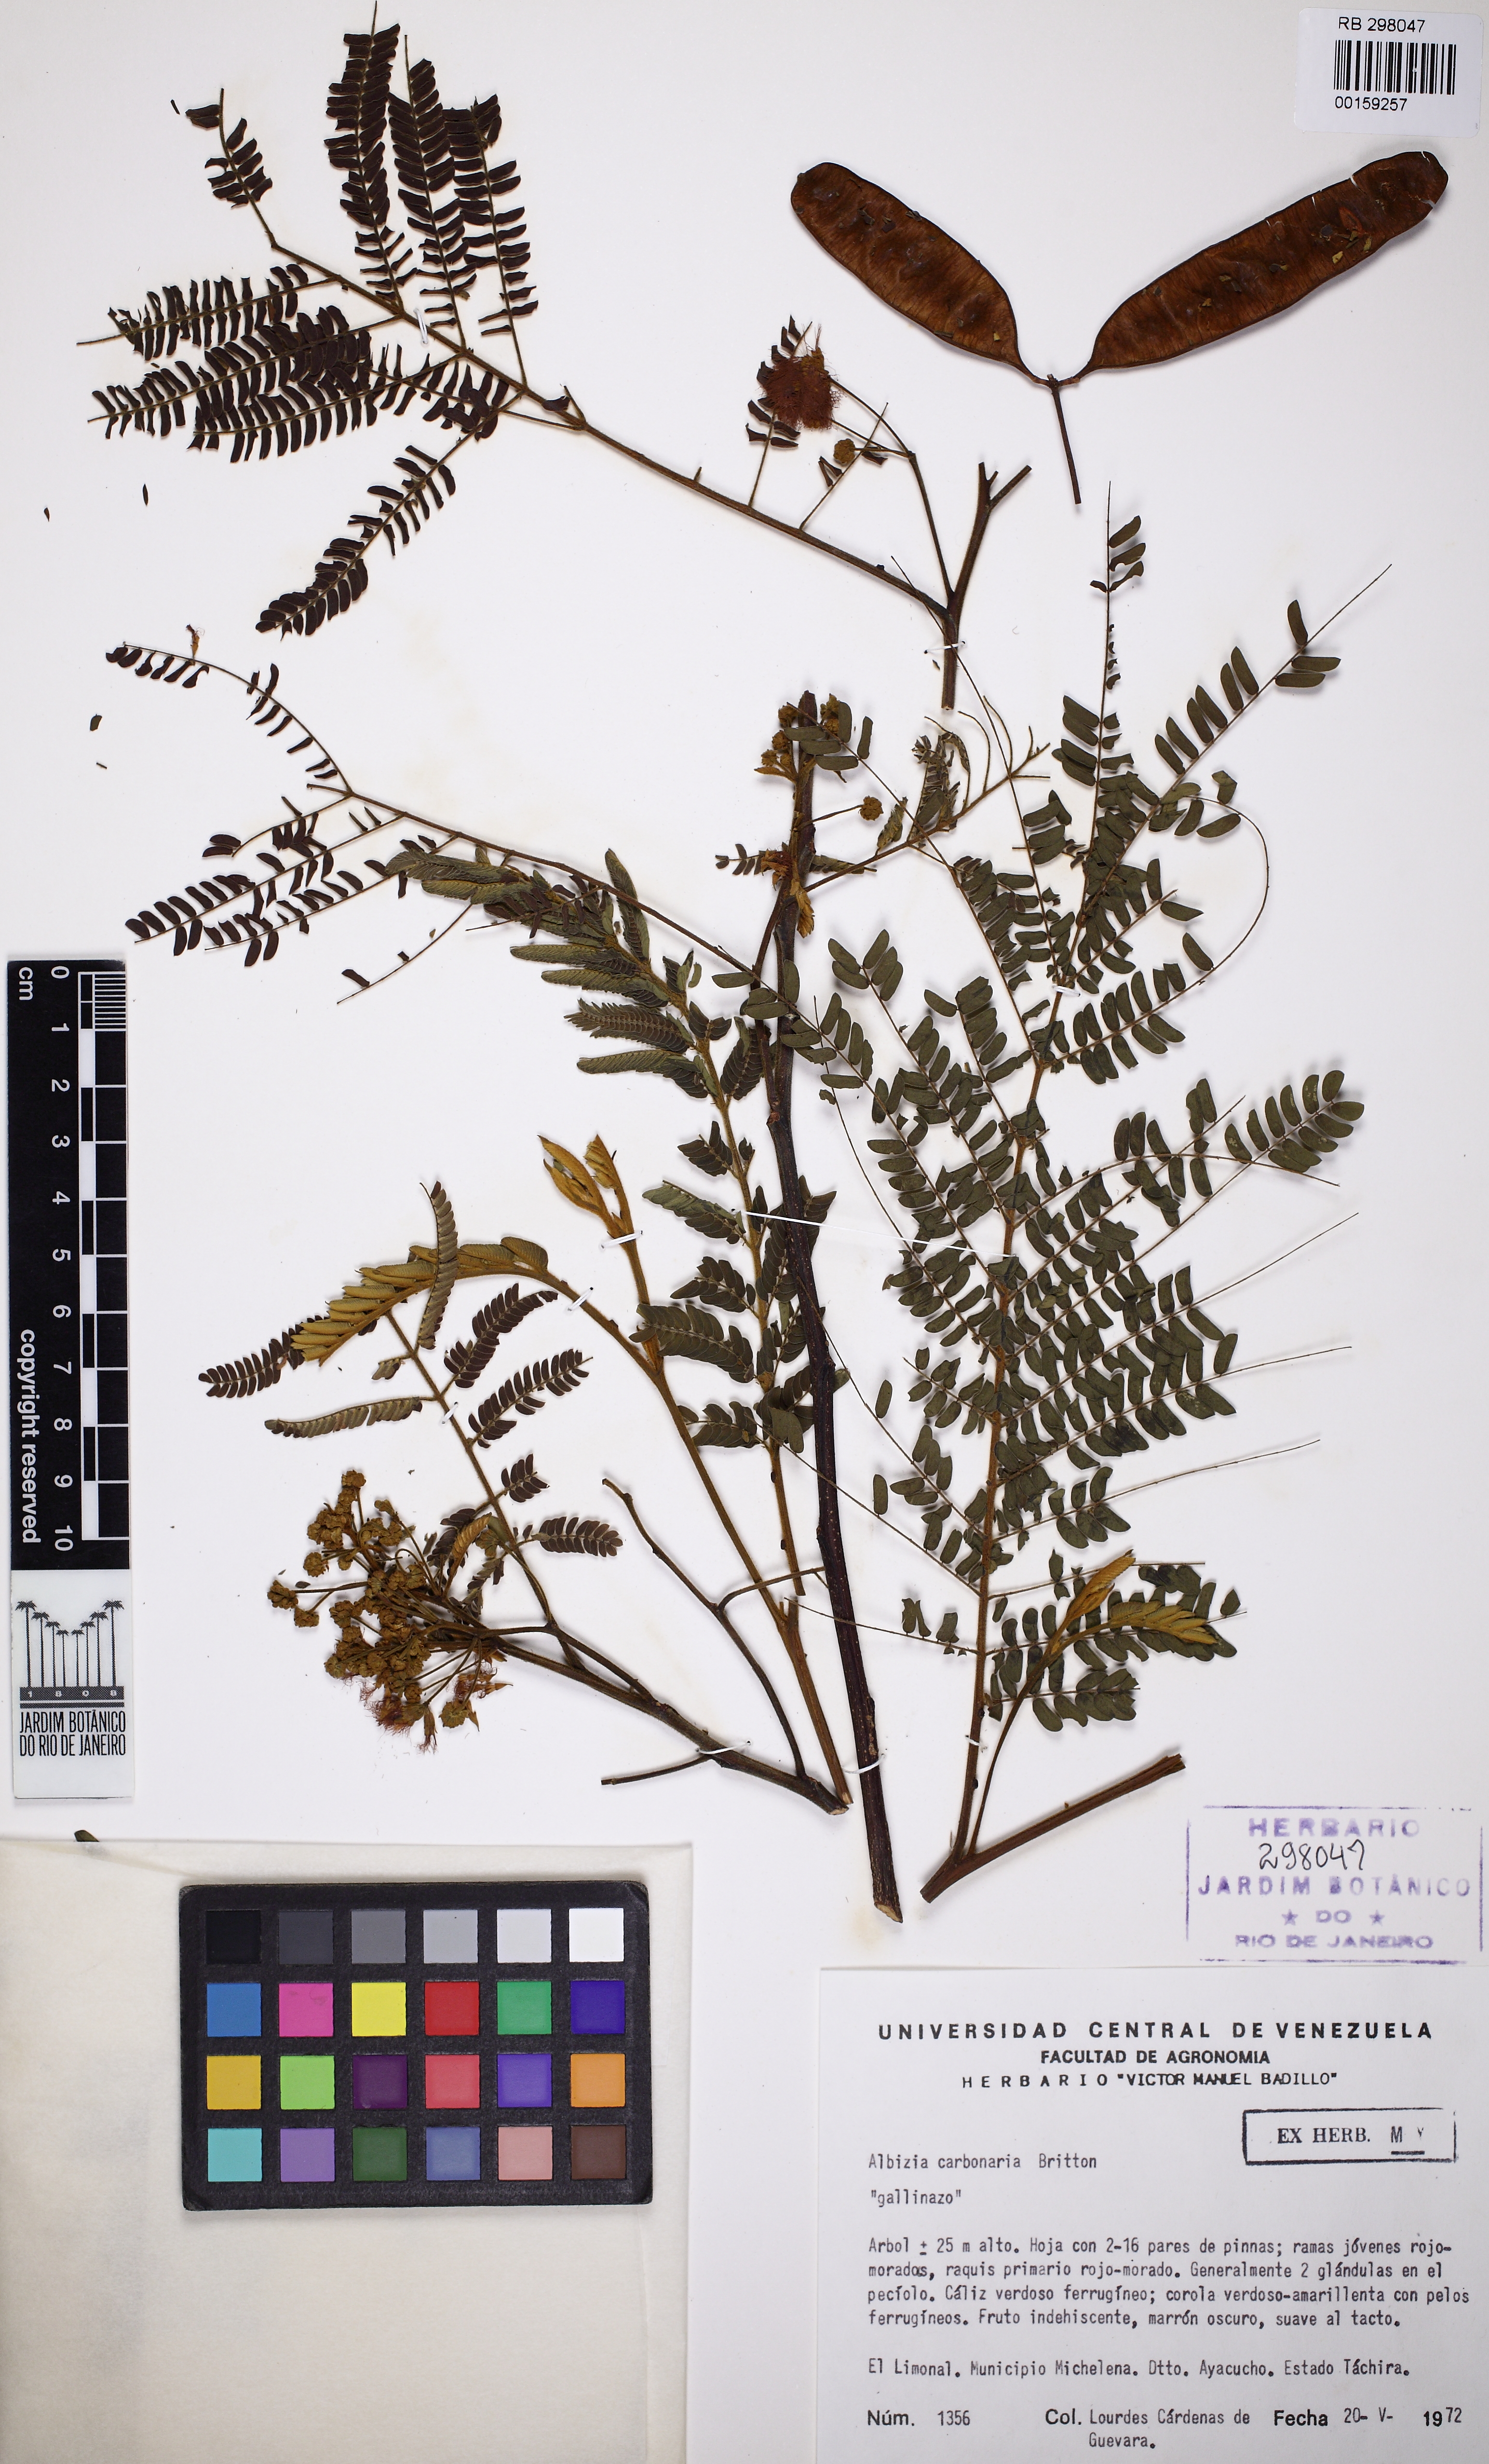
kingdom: Plantae
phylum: Tracheophyta
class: Magnoliopsida
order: Fabales
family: Fabaceae
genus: Albizia
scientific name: Albizia carbonaria
